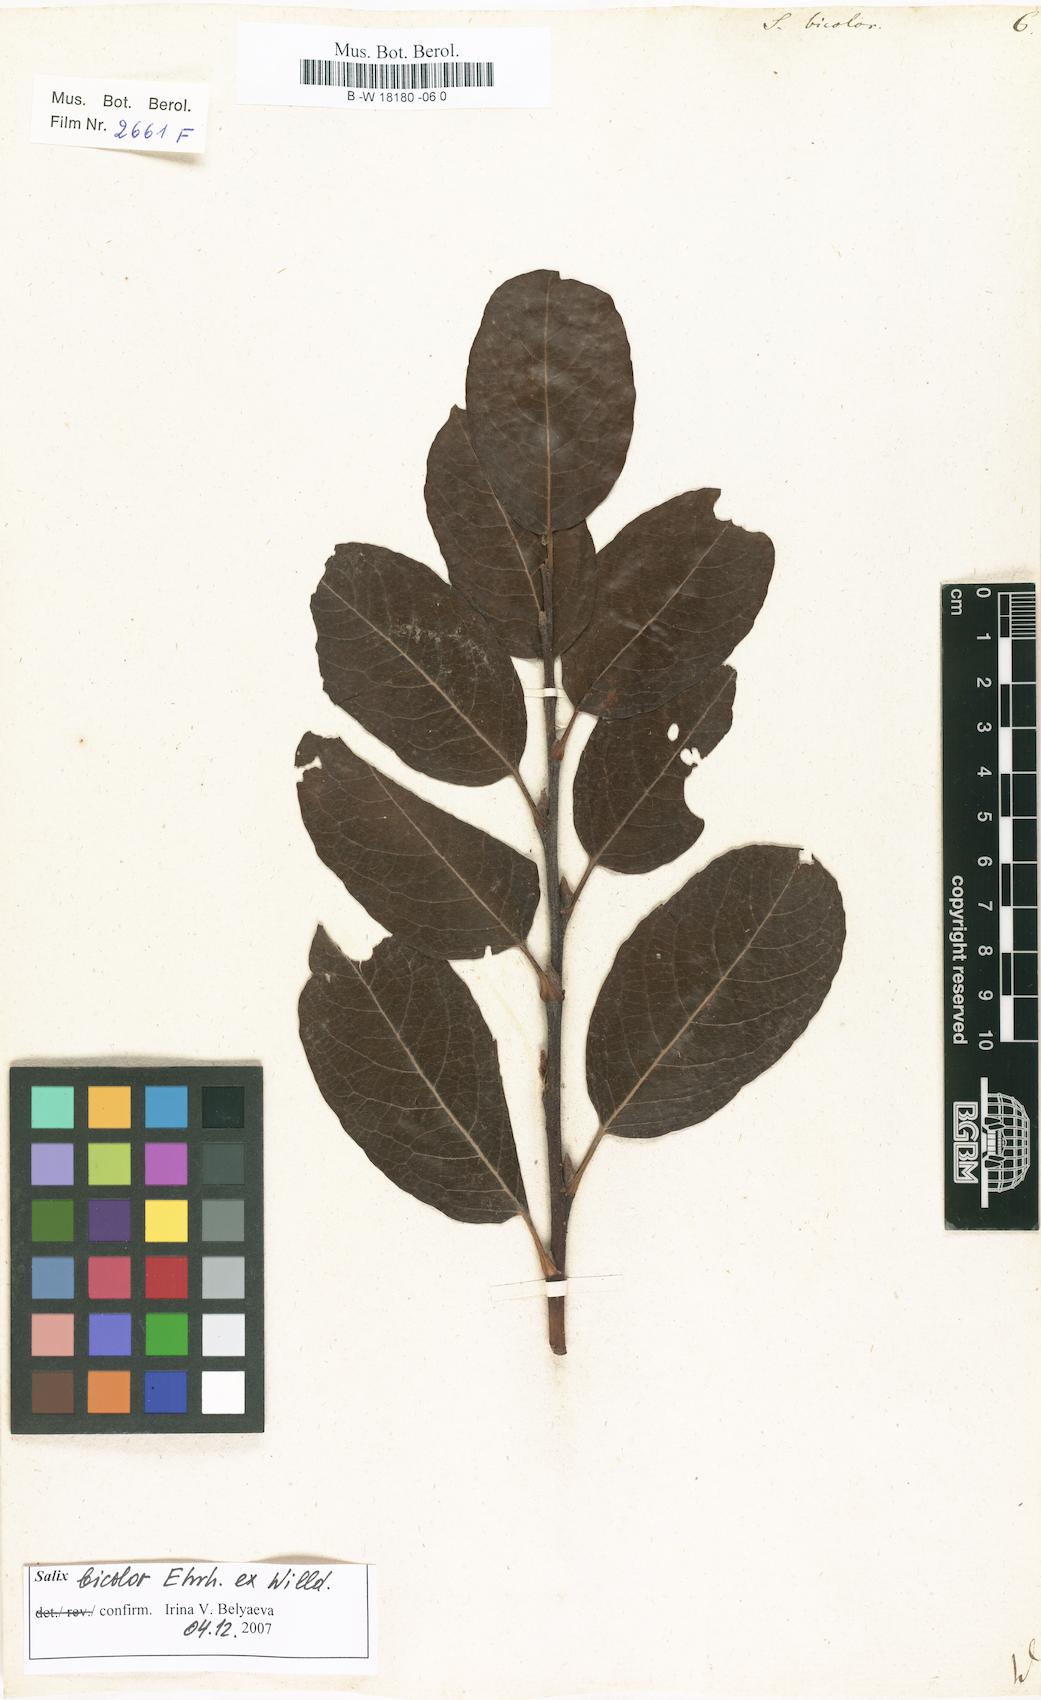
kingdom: Plantae
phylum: Tracheophyta
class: Magnoliopsida
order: Malpighiales
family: Salicaceae
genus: Salix
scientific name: Salix bicolor
